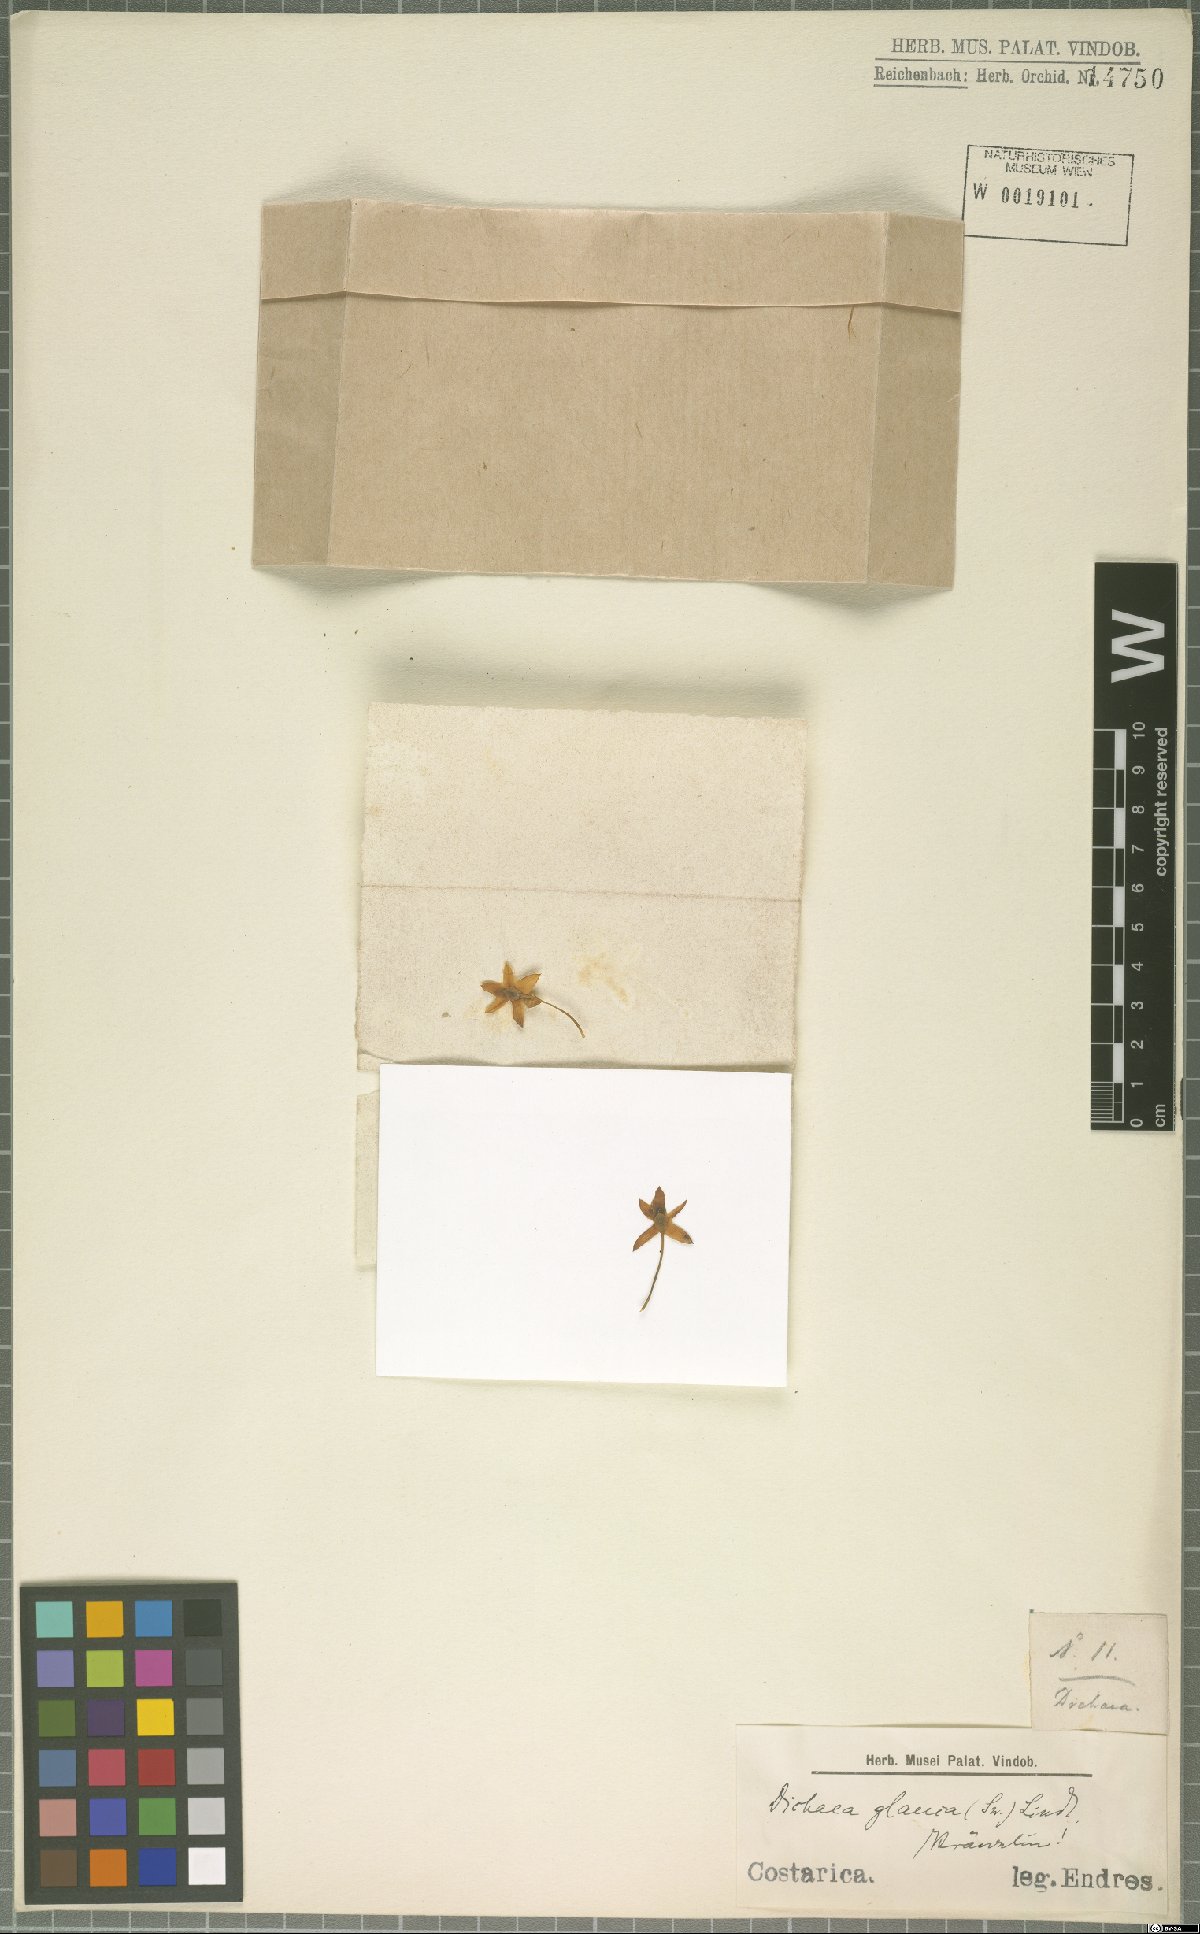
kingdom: Plantae
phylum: Tracheophyta
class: Liliopsida
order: Asparagales
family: Orchidaceae
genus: Dichaea
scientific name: Dichaea glauca
